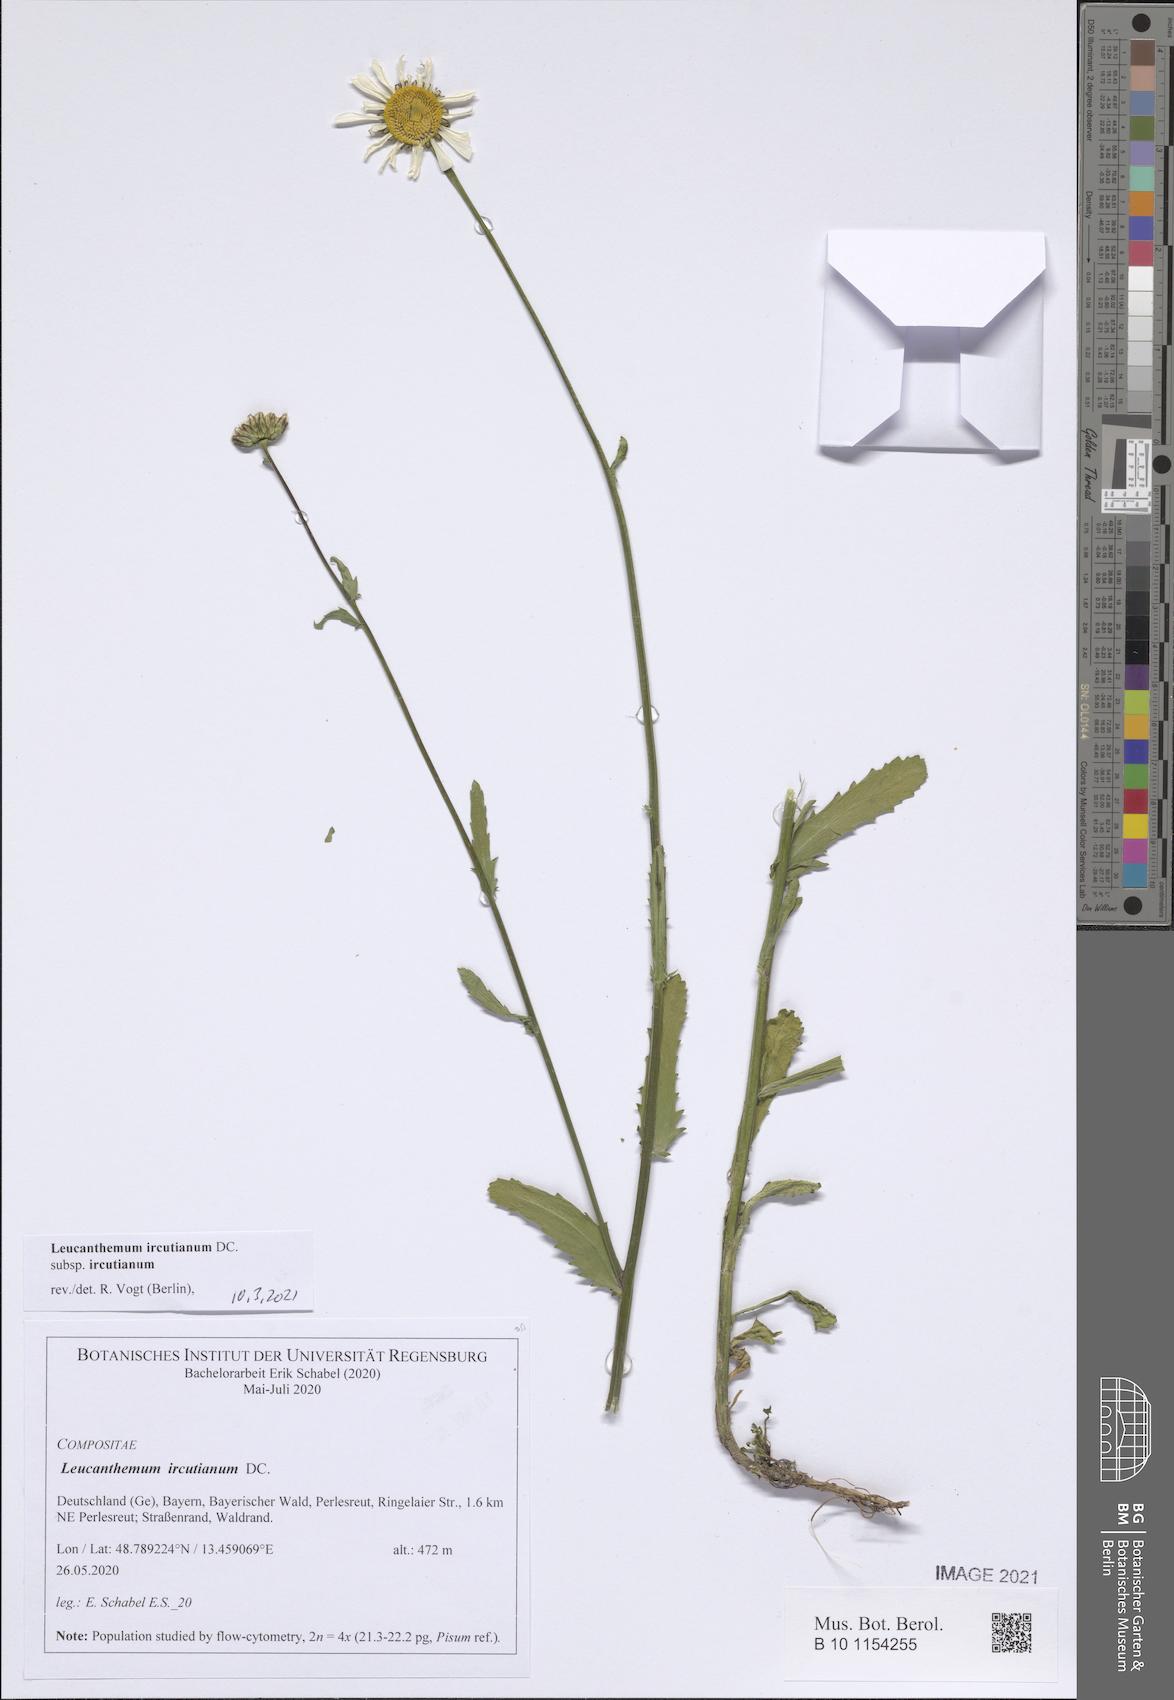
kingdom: Plantae
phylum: Tracheophyta
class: Magnoliopsida
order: Asterales
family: Asteraceae
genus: Leucanthemum
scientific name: Leucanthemum ircutianum
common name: Daisy
